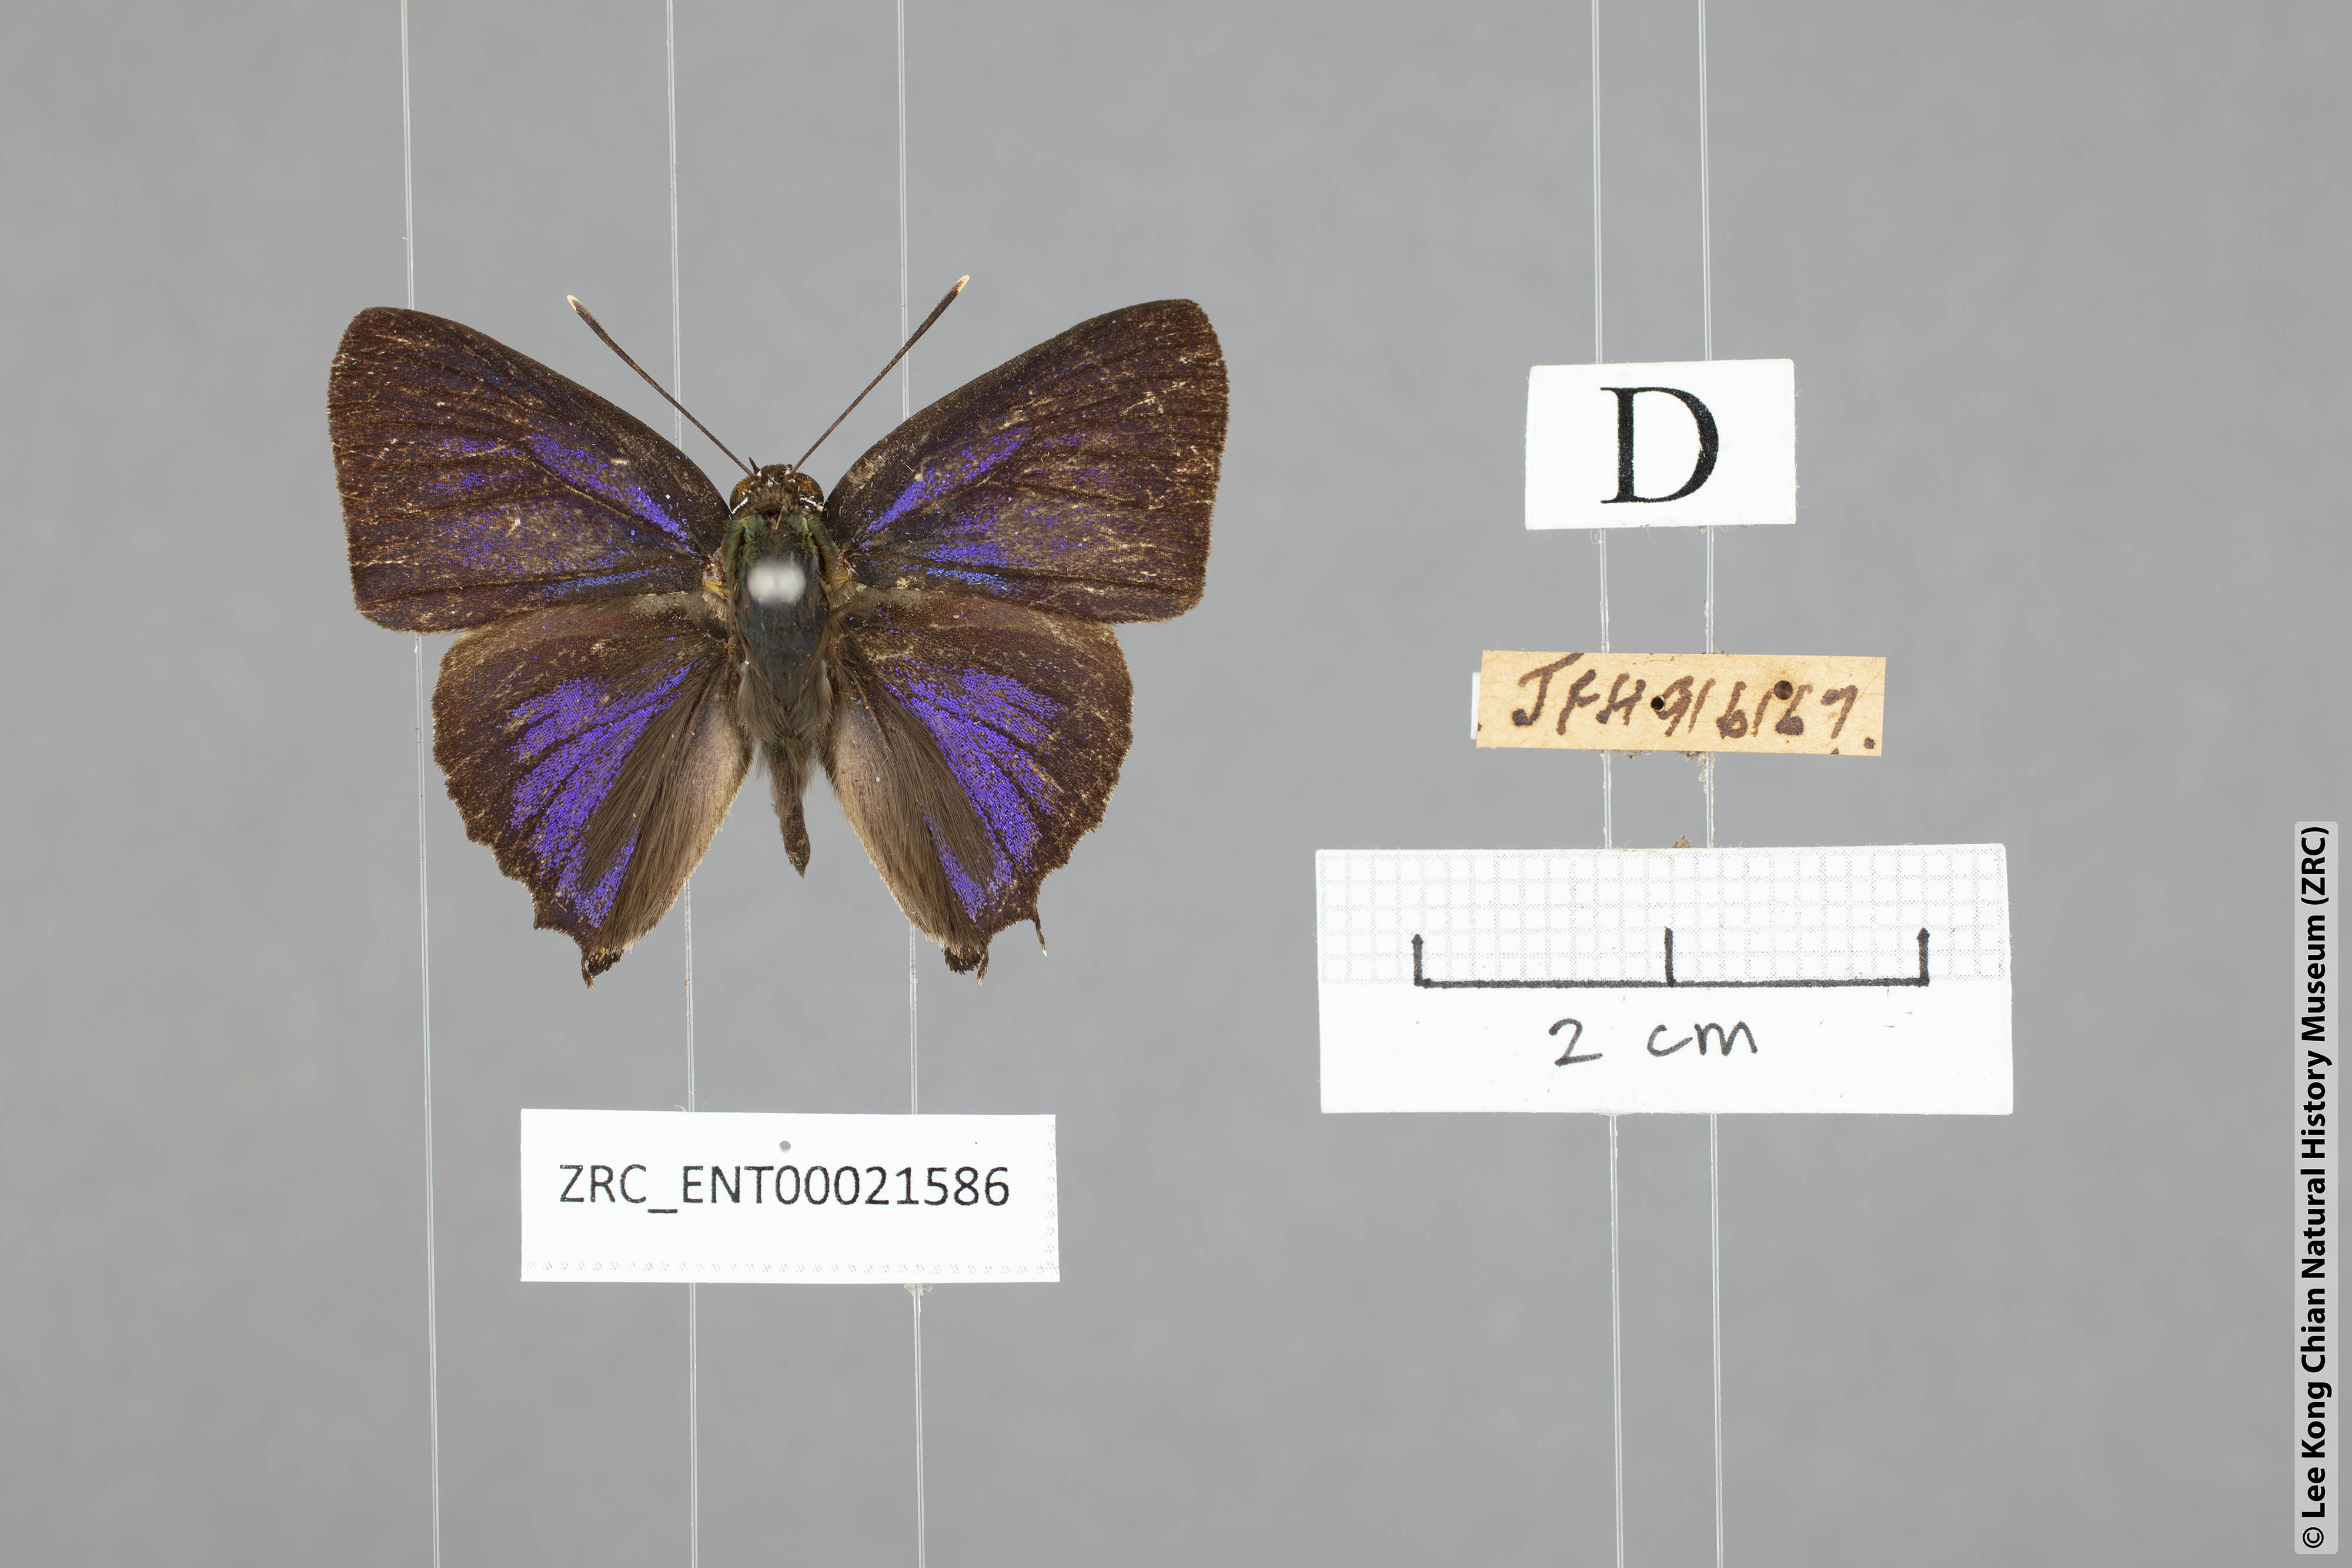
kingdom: Animalia
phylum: Arthropoda
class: Insecta
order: Lepidoptera
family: Lycaenidae
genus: Iraota
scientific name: Iraota
